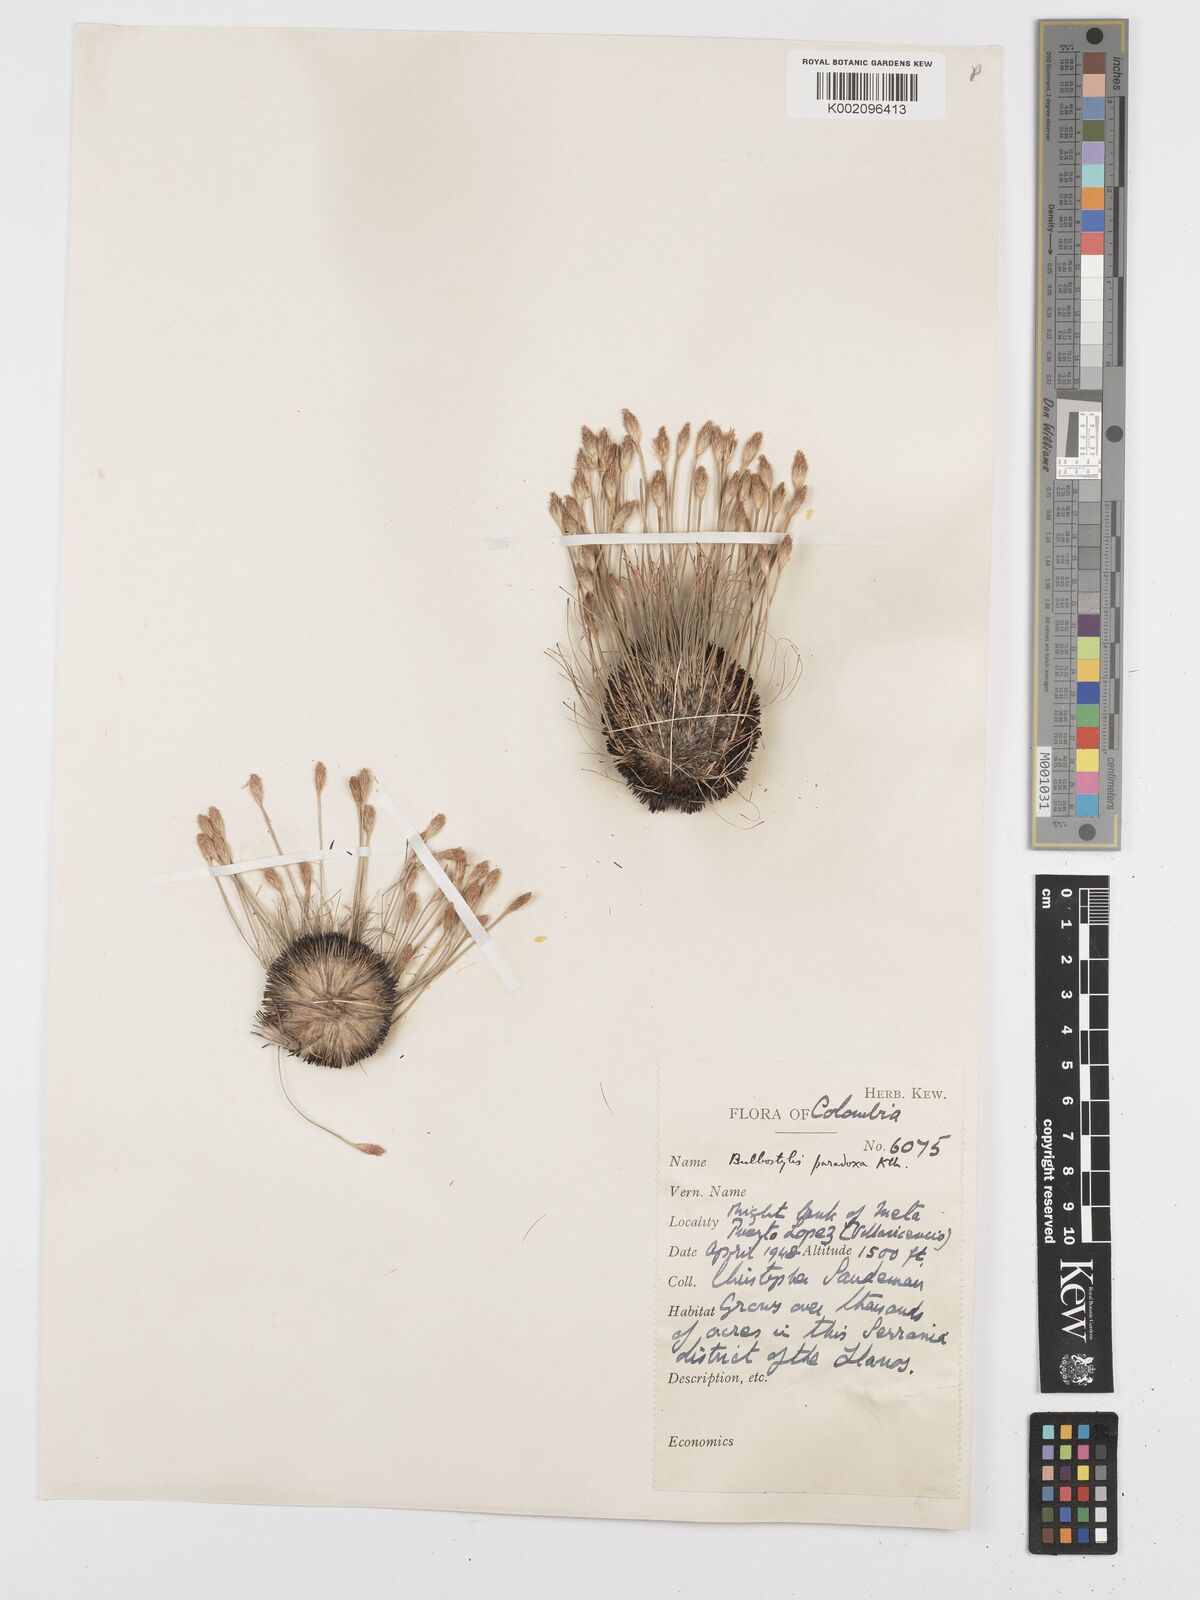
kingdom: Plantae
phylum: Tracheophyta
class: Liliopsida
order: Poales
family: Cyperaceae
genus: Bulbostylis
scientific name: Bulbostylis
